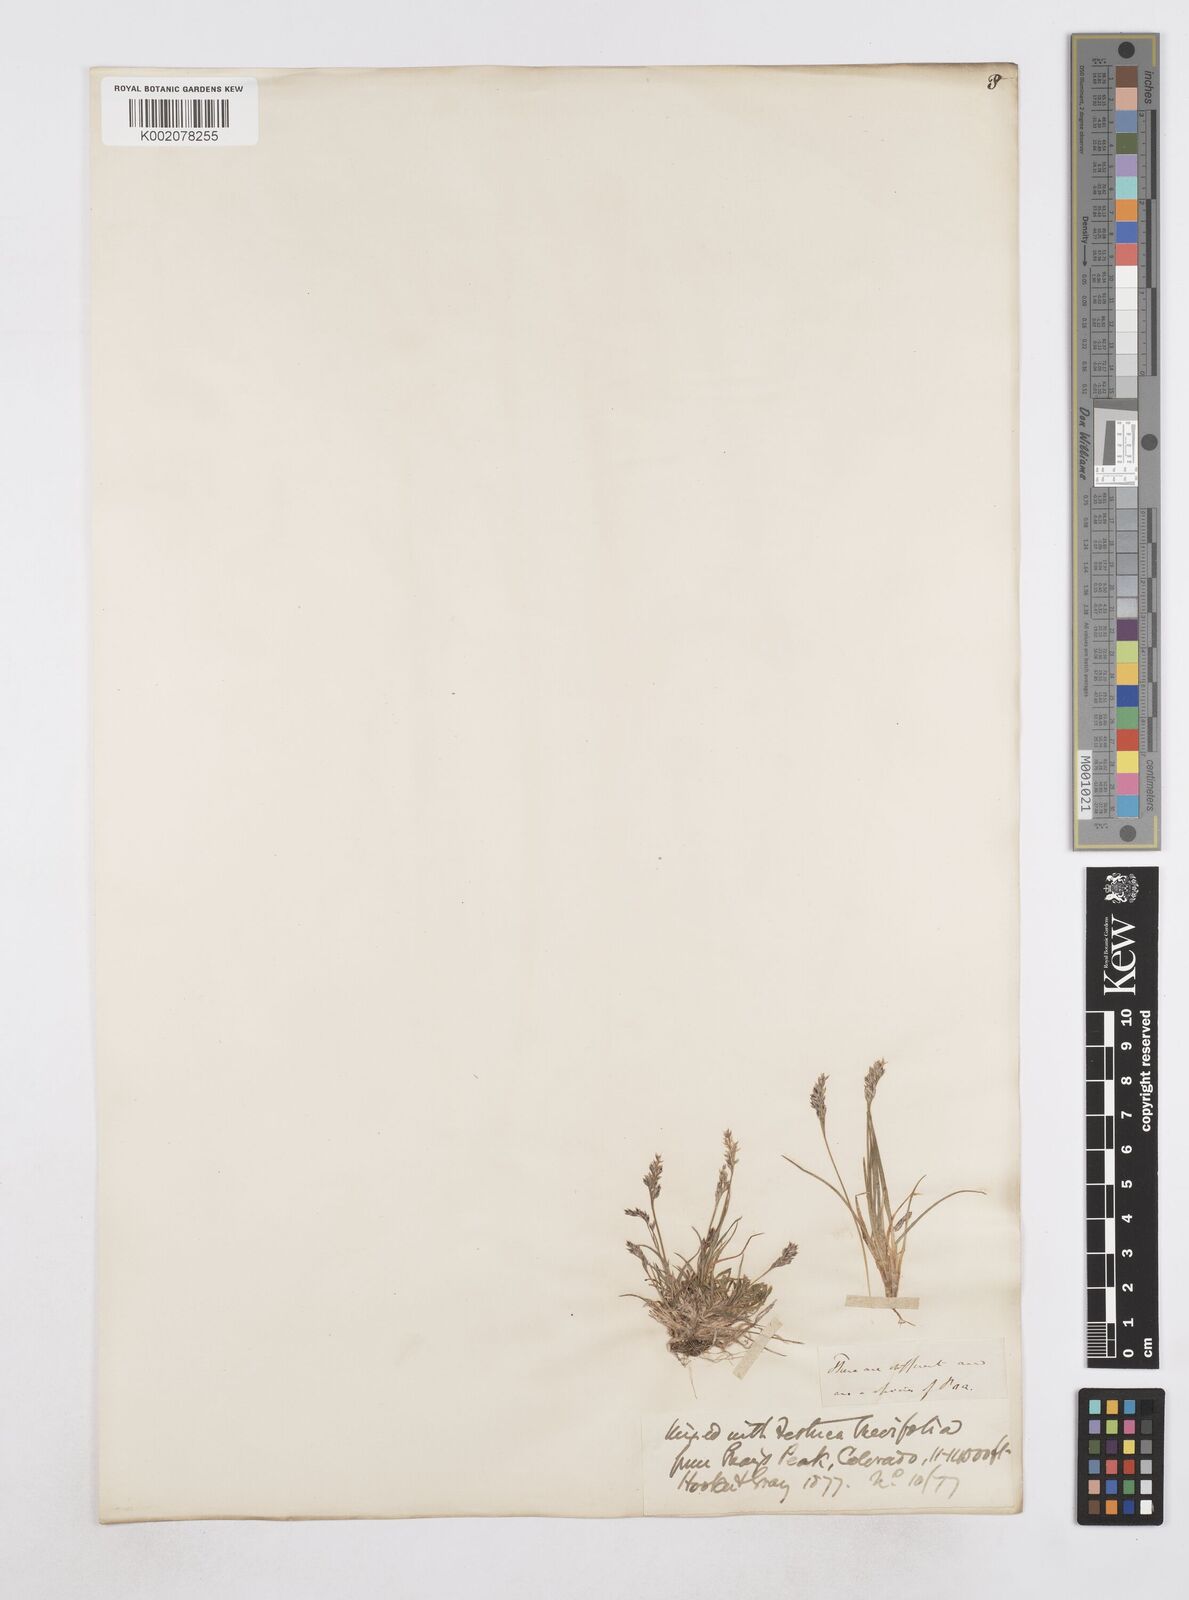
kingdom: Plantae
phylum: Tracheophyta
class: Liliopsida
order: Poales
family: Poaceae
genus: Poa
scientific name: Poa
